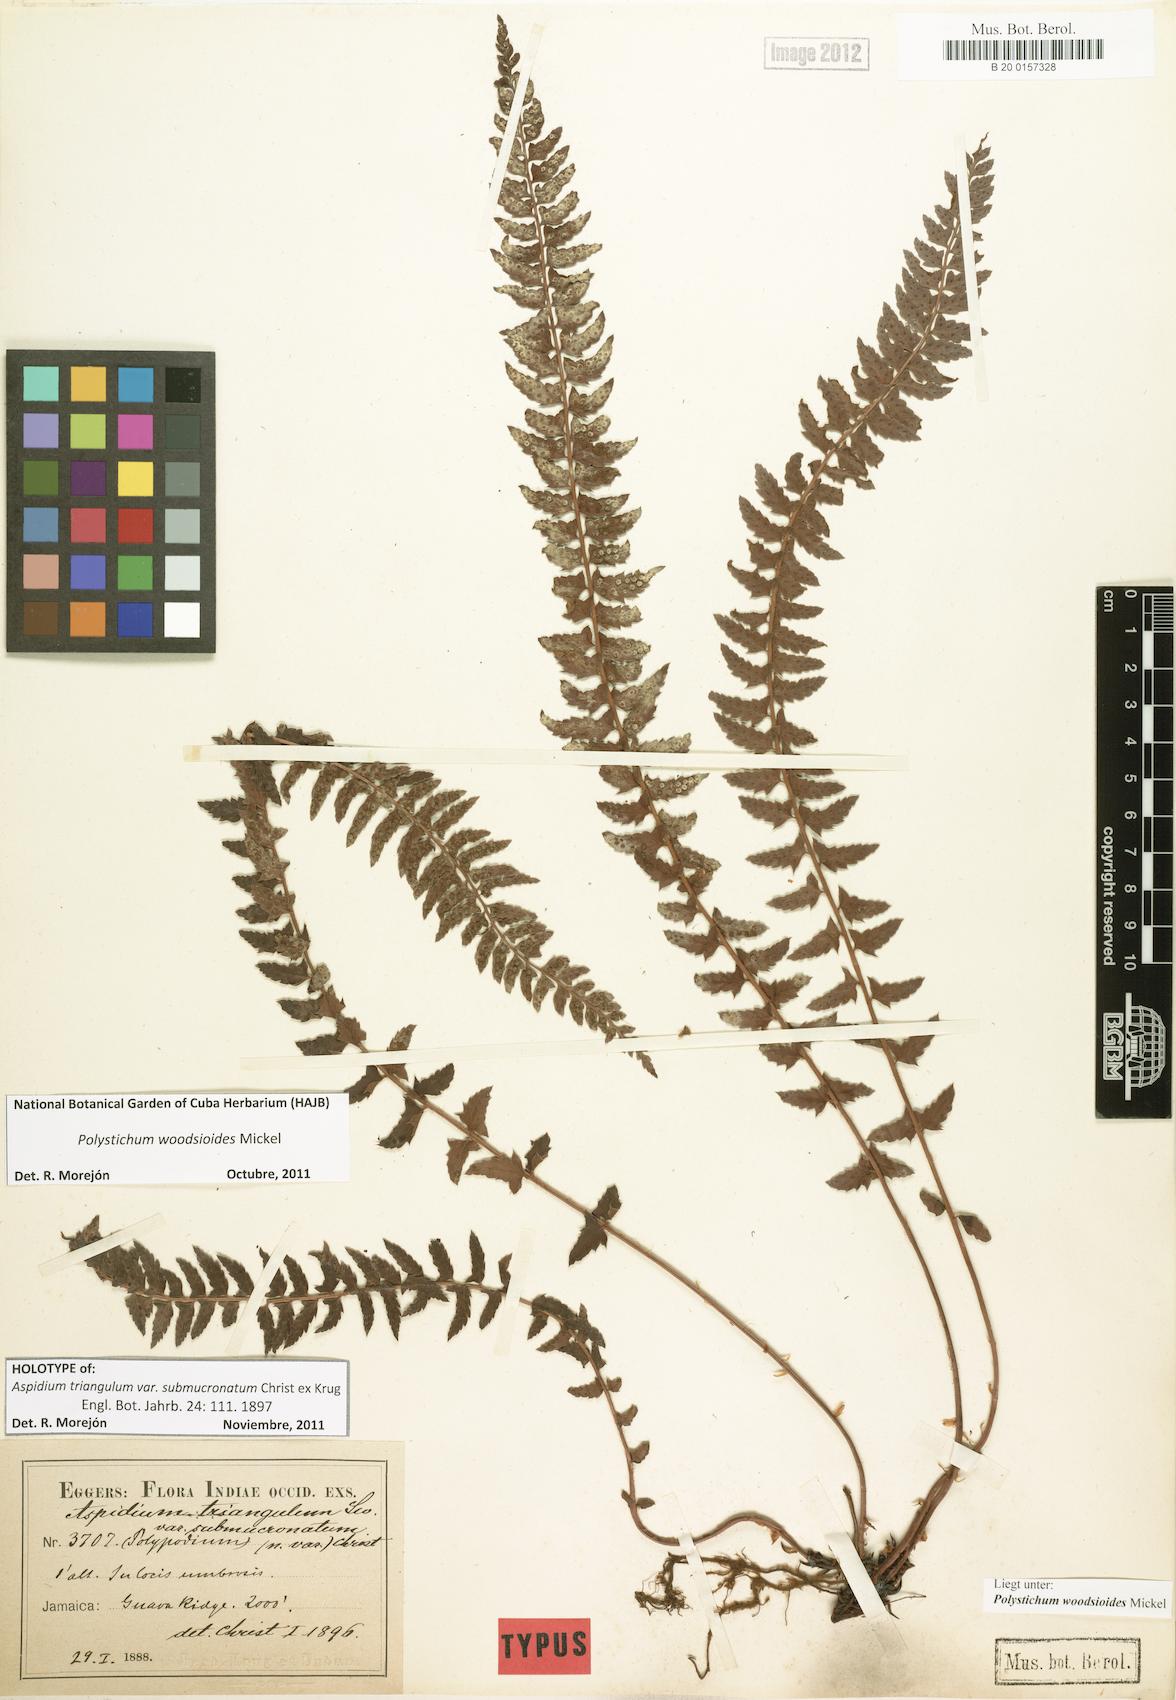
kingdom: Plantae
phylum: Tracheophyta
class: Polypodiopsida
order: Polypodiales
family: Dryopteridaceae
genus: Polystichum
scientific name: Polystichum woodsioides
